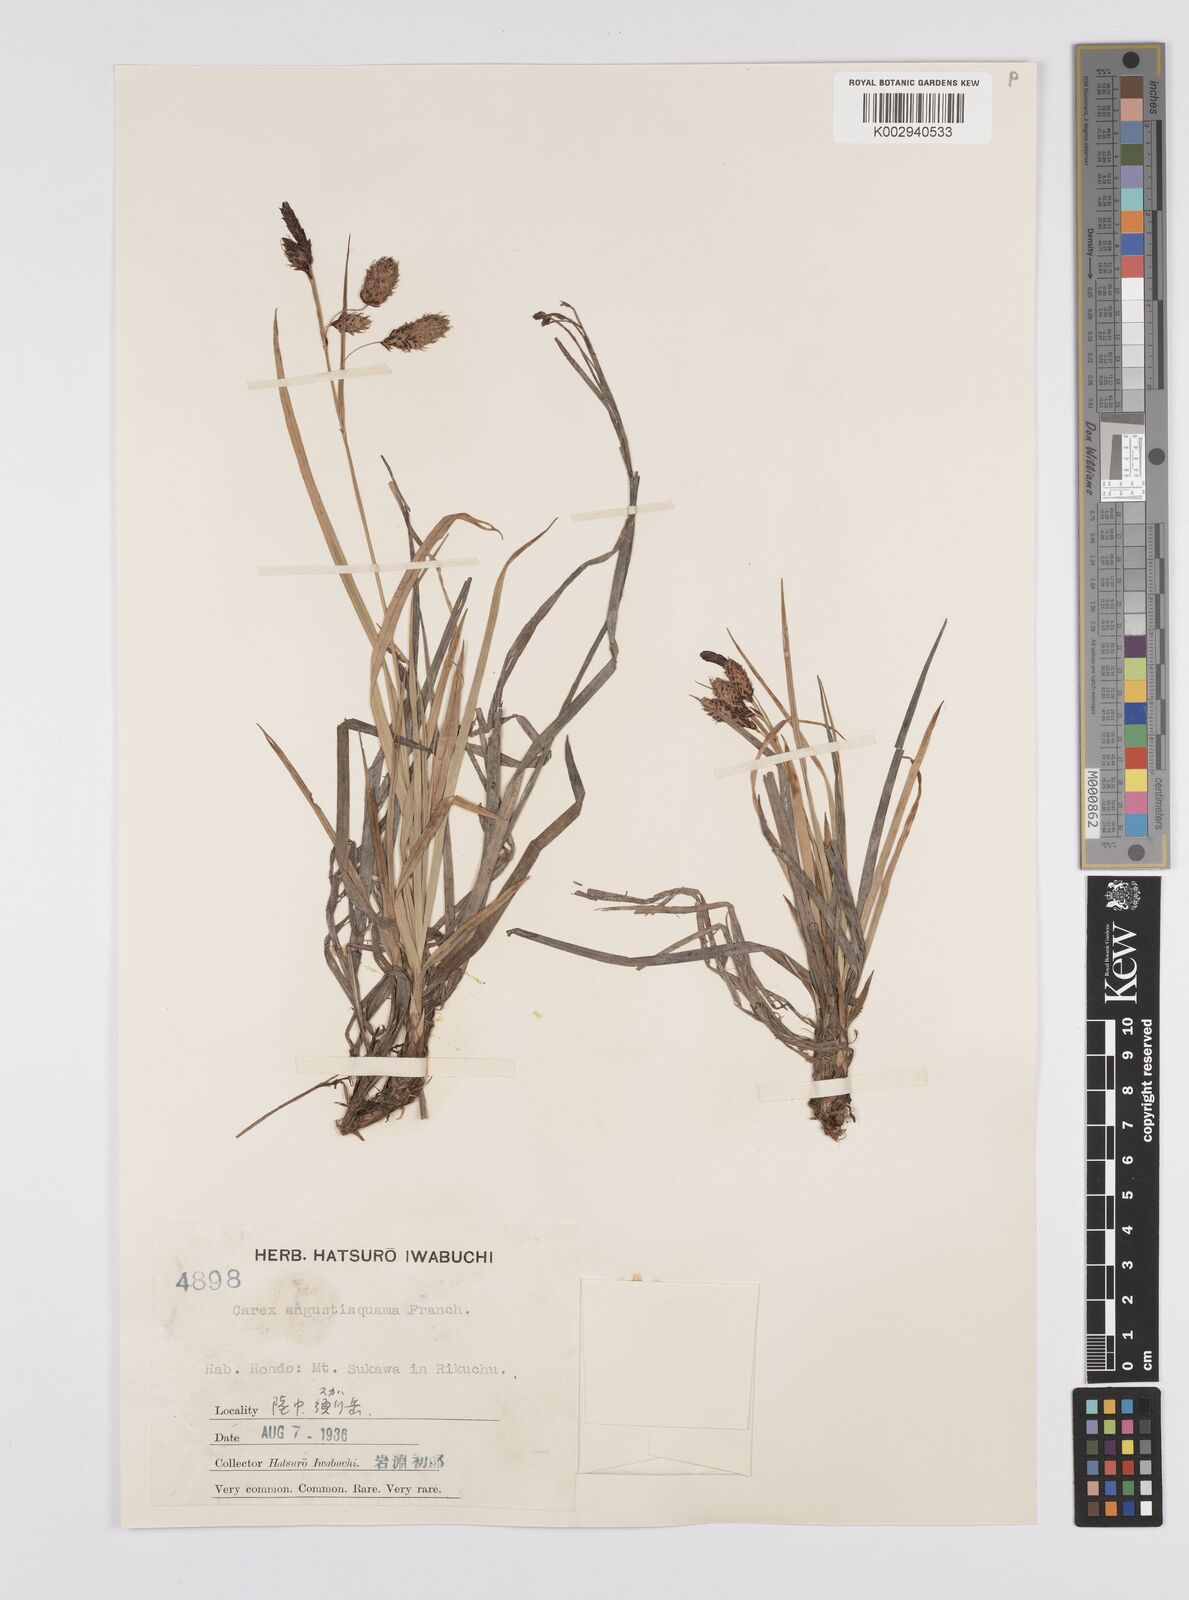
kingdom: Plantae
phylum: Tracheophyta
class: Liliopsida
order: Poales
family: Cyperaceae
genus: Carex
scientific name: Carex angustisquama
